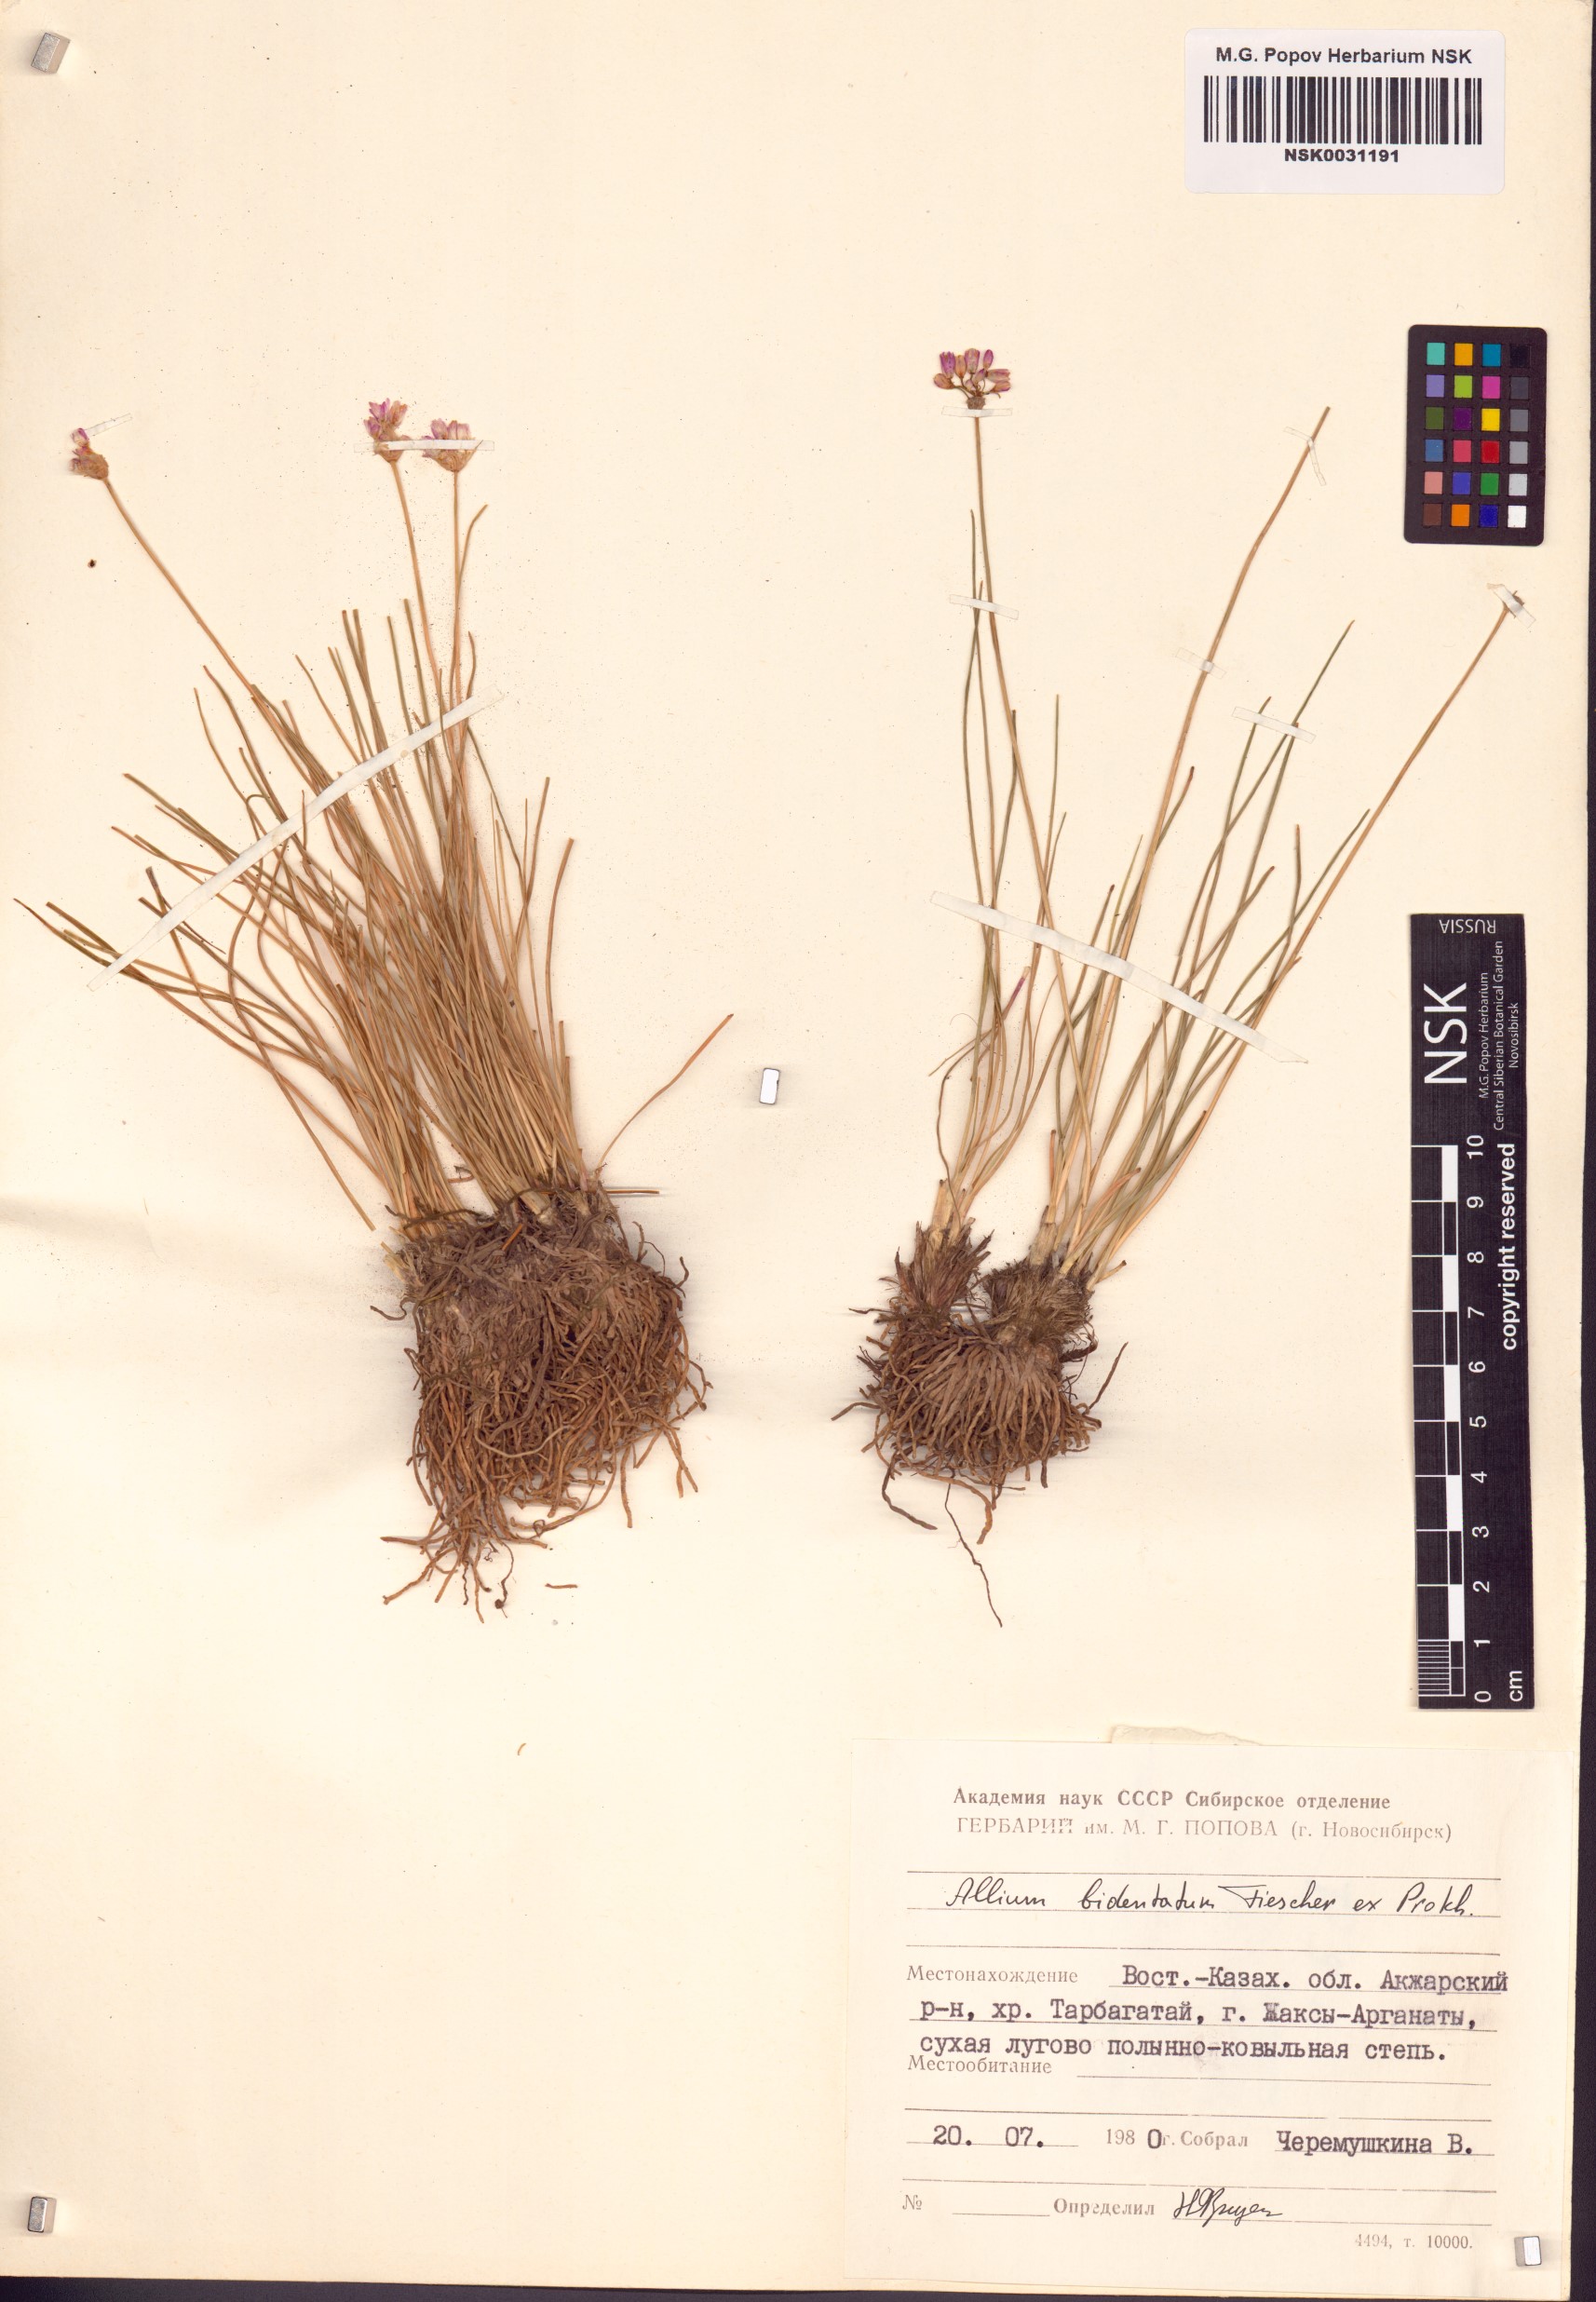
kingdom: Plantae
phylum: Tracheophyta
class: Liliopsida
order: Asparagales
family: Amaryllidaceae
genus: Allium
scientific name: Allium bidentatum
